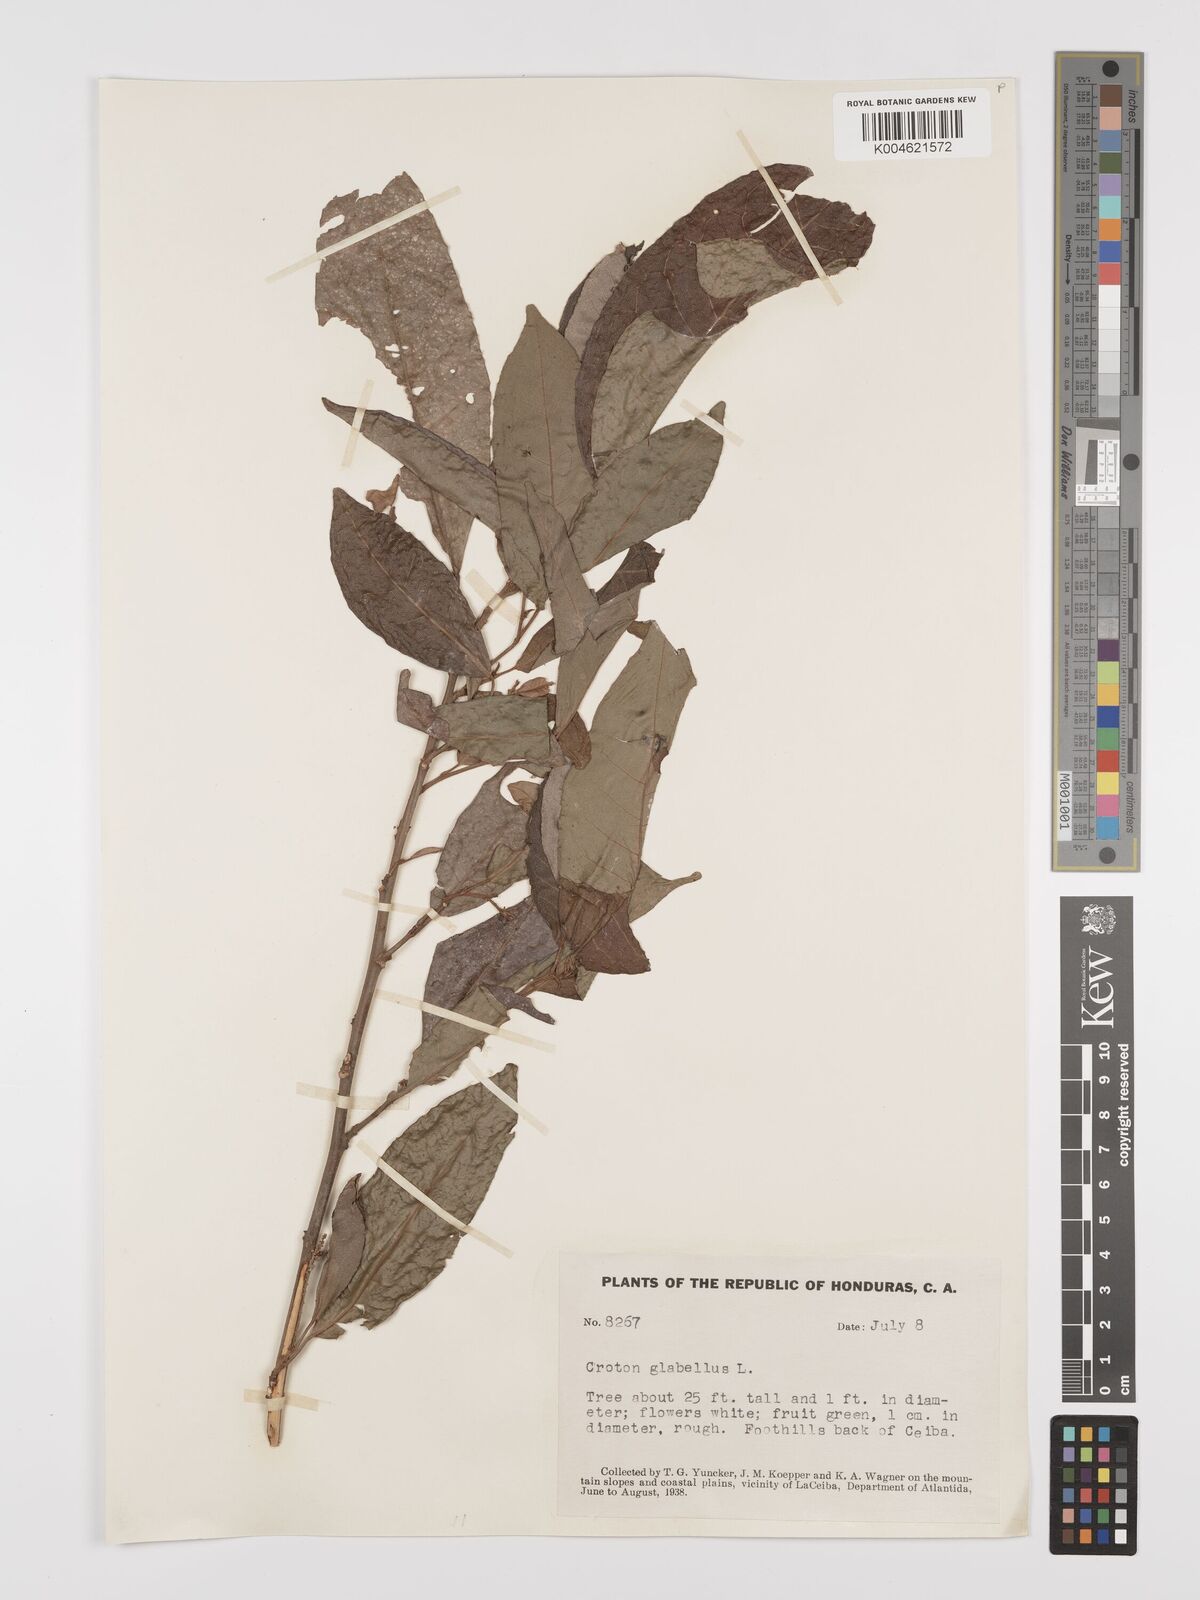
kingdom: Plantae
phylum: Tracheophyta
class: Magnoliopsida
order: Malpighiales
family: Euphorbiaceae
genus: Croton
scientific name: Croton glabellus
